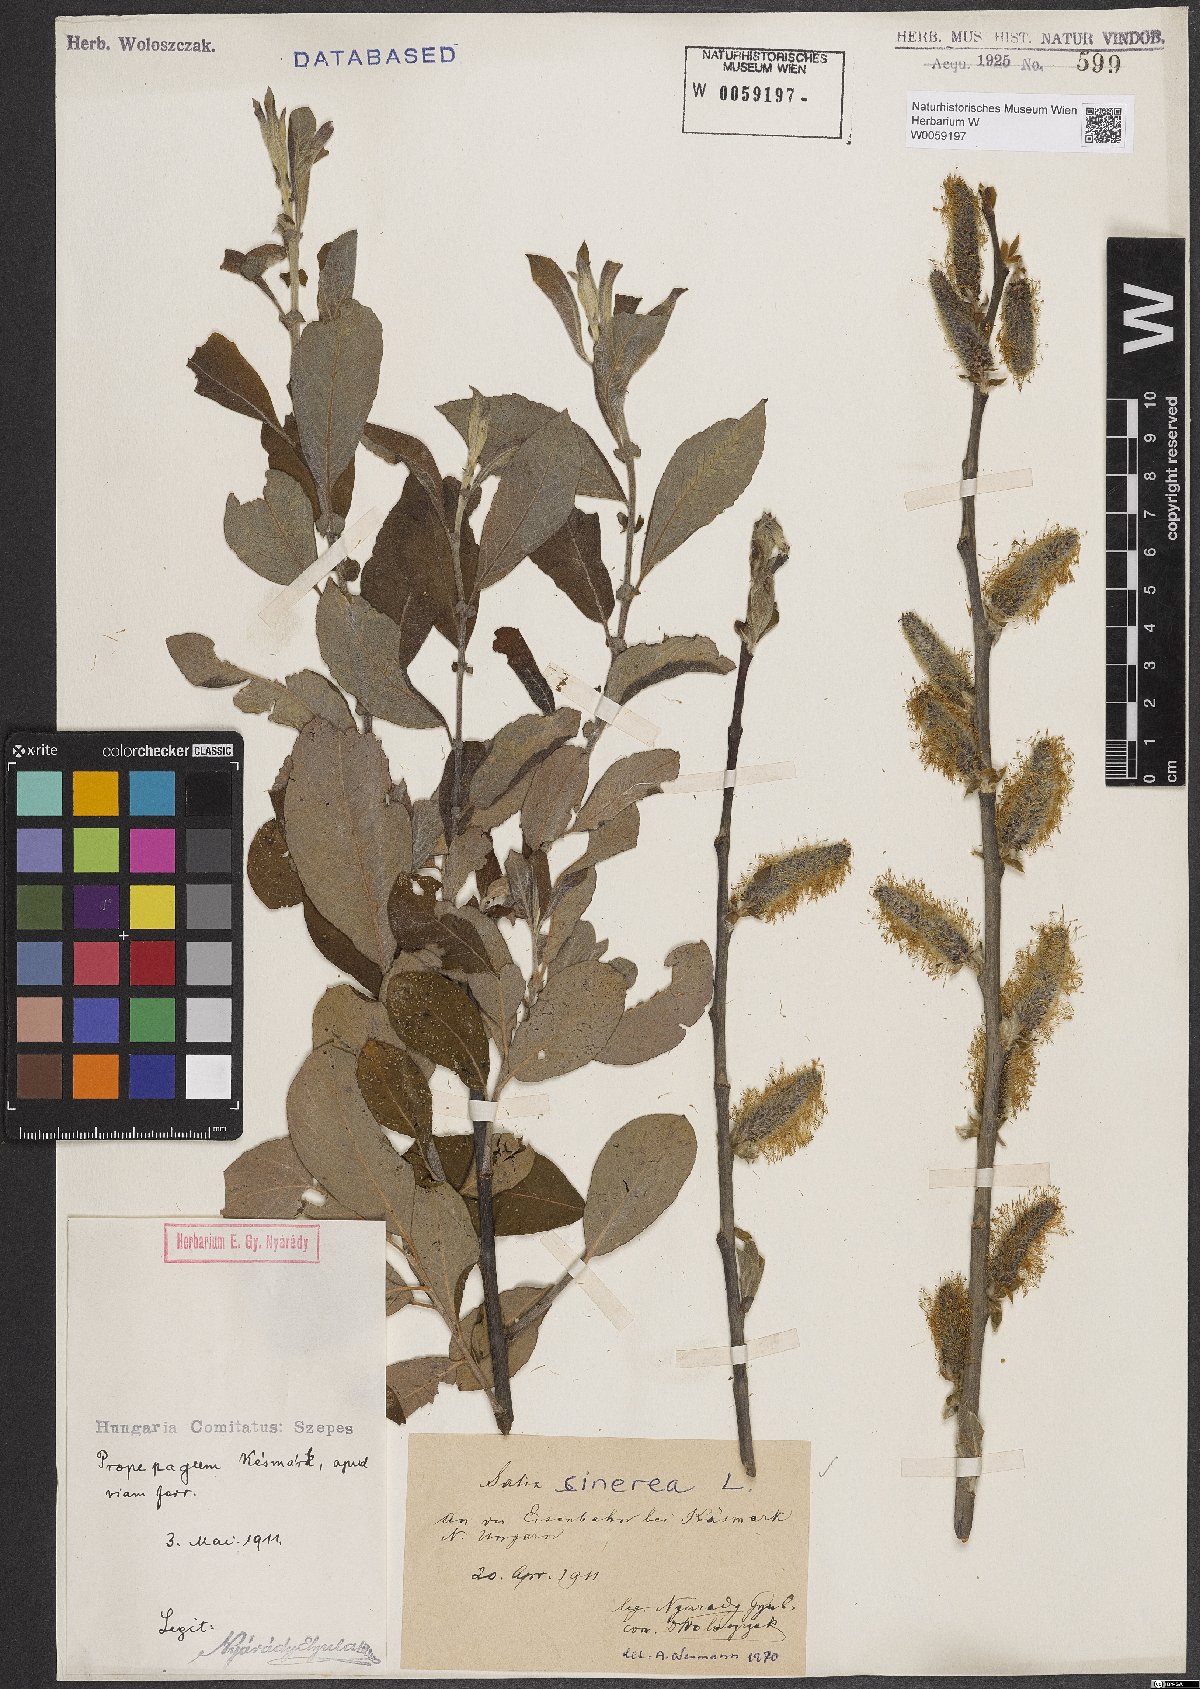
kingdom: Plantae
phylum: Tracheophyta
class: Magnoliopsida
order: Malpighiales
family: Salicaceae
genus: Salix
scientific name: Salix cinerea
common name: Common sallow
